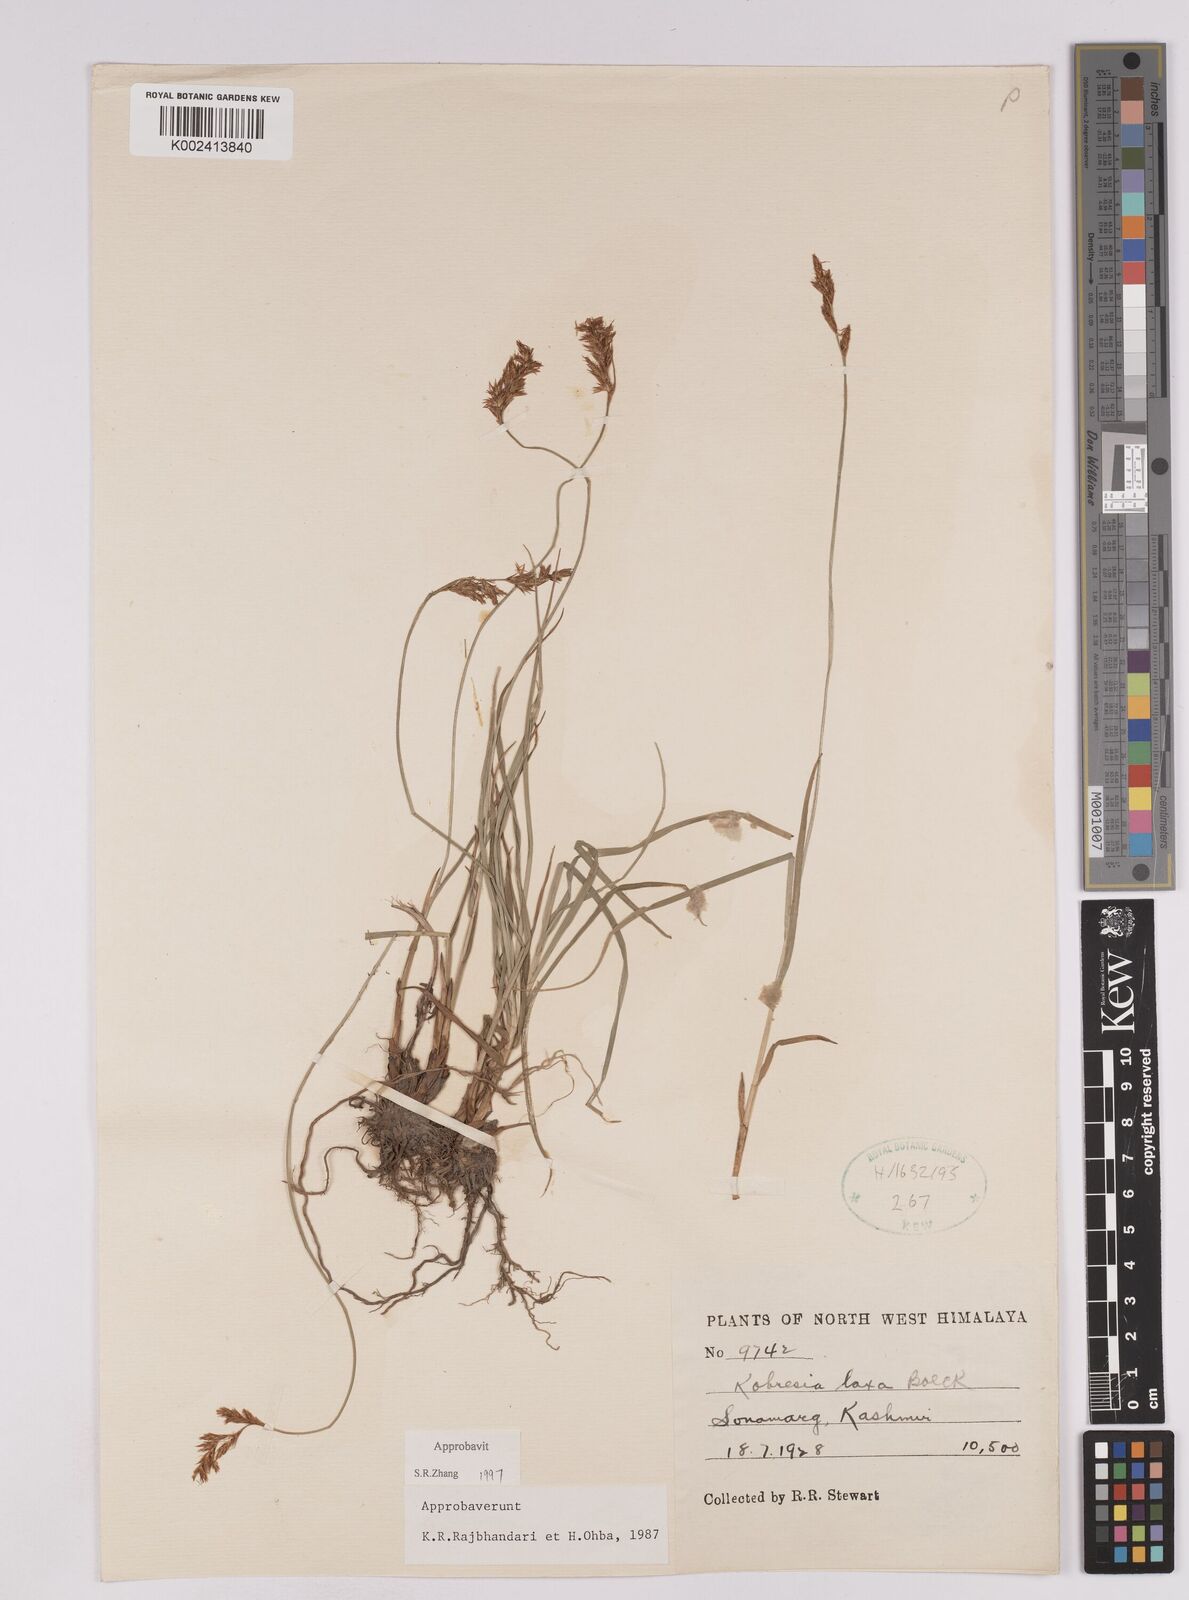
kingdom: Plantae
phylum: Tracheophyta
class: Liliopsida
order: Poales
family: Cyperaceae
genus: Carex
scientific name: Carex
